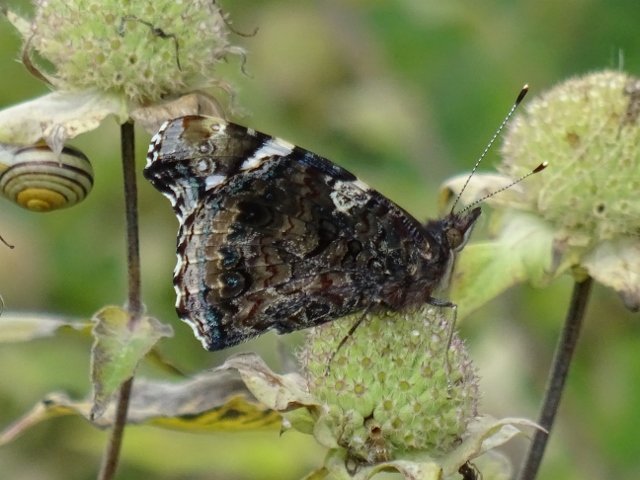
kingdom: Animalia
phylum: Arthropoda
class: Insecta
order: Lepidoptera
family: Nymphalidae
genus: Vanessa
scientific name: Vanessa atalanta
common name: Red Admiral
